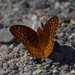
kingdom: Animalia
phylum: Arthropoda
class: Insecta
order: Lepidoptera
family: Nymphalidae
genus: Speyeria
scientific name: Speyeria cybele
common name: Great Spangled Fritillary
